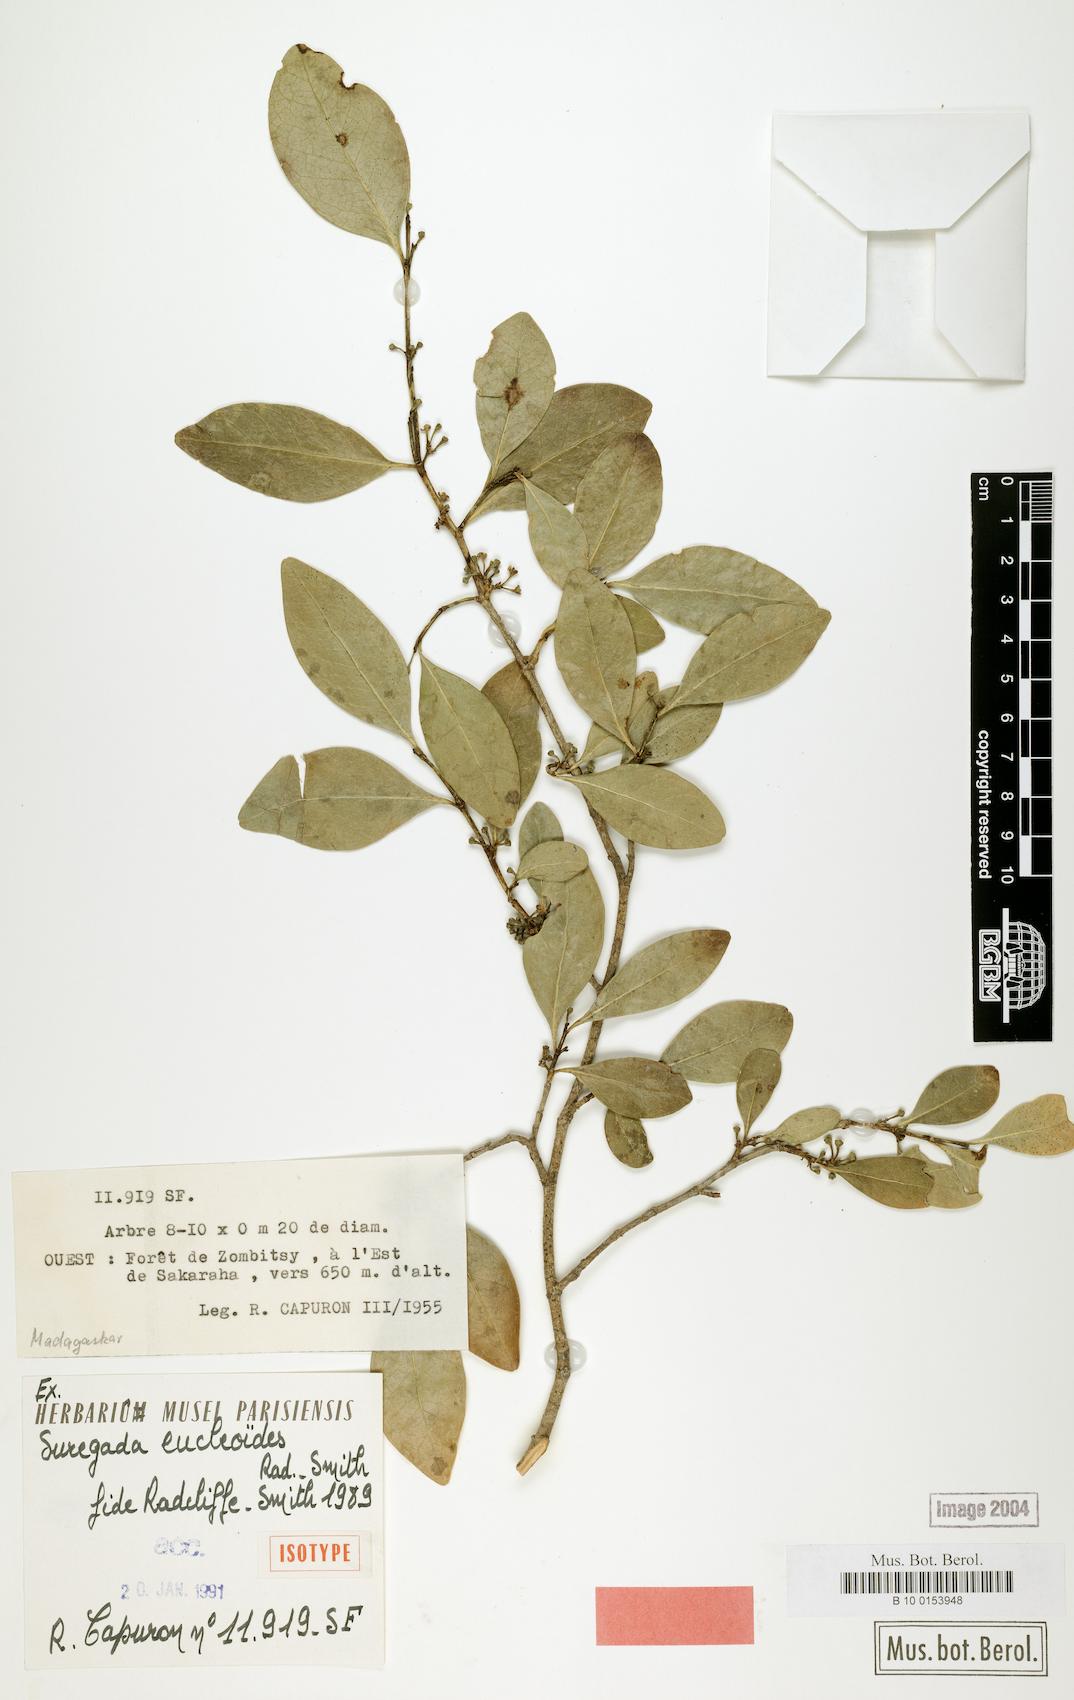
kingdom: Plantae
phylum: Tracheophyta
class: Magnoliopsida
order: Malpighiales
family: Euphorbiaceae
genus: Suregada
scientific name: Suregada eucleoides
